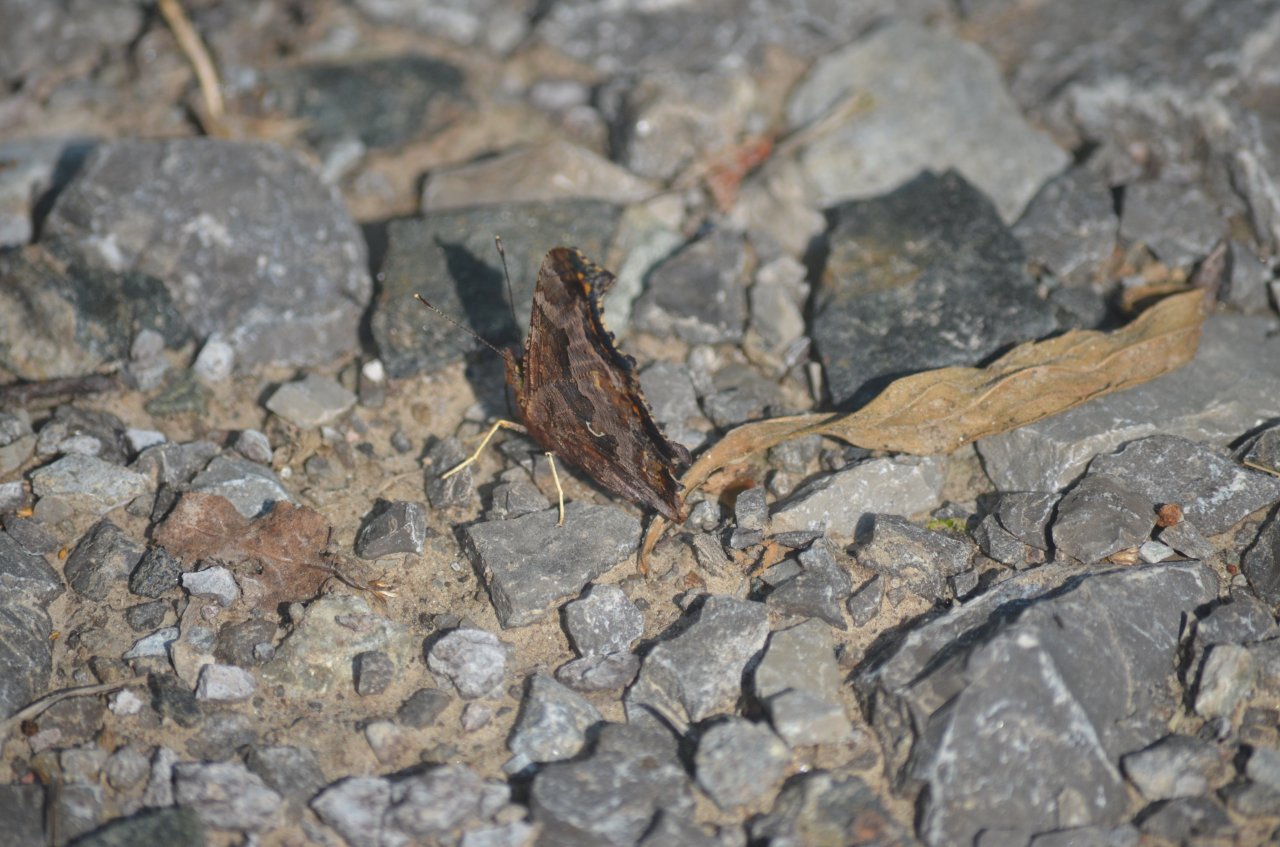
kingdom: Animalia
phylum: Arthropoda
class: Insecta
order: Lepidoptera
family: Nymphalidae
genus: Polygonia
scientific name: Polygonia comma
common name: Eastern Comma
